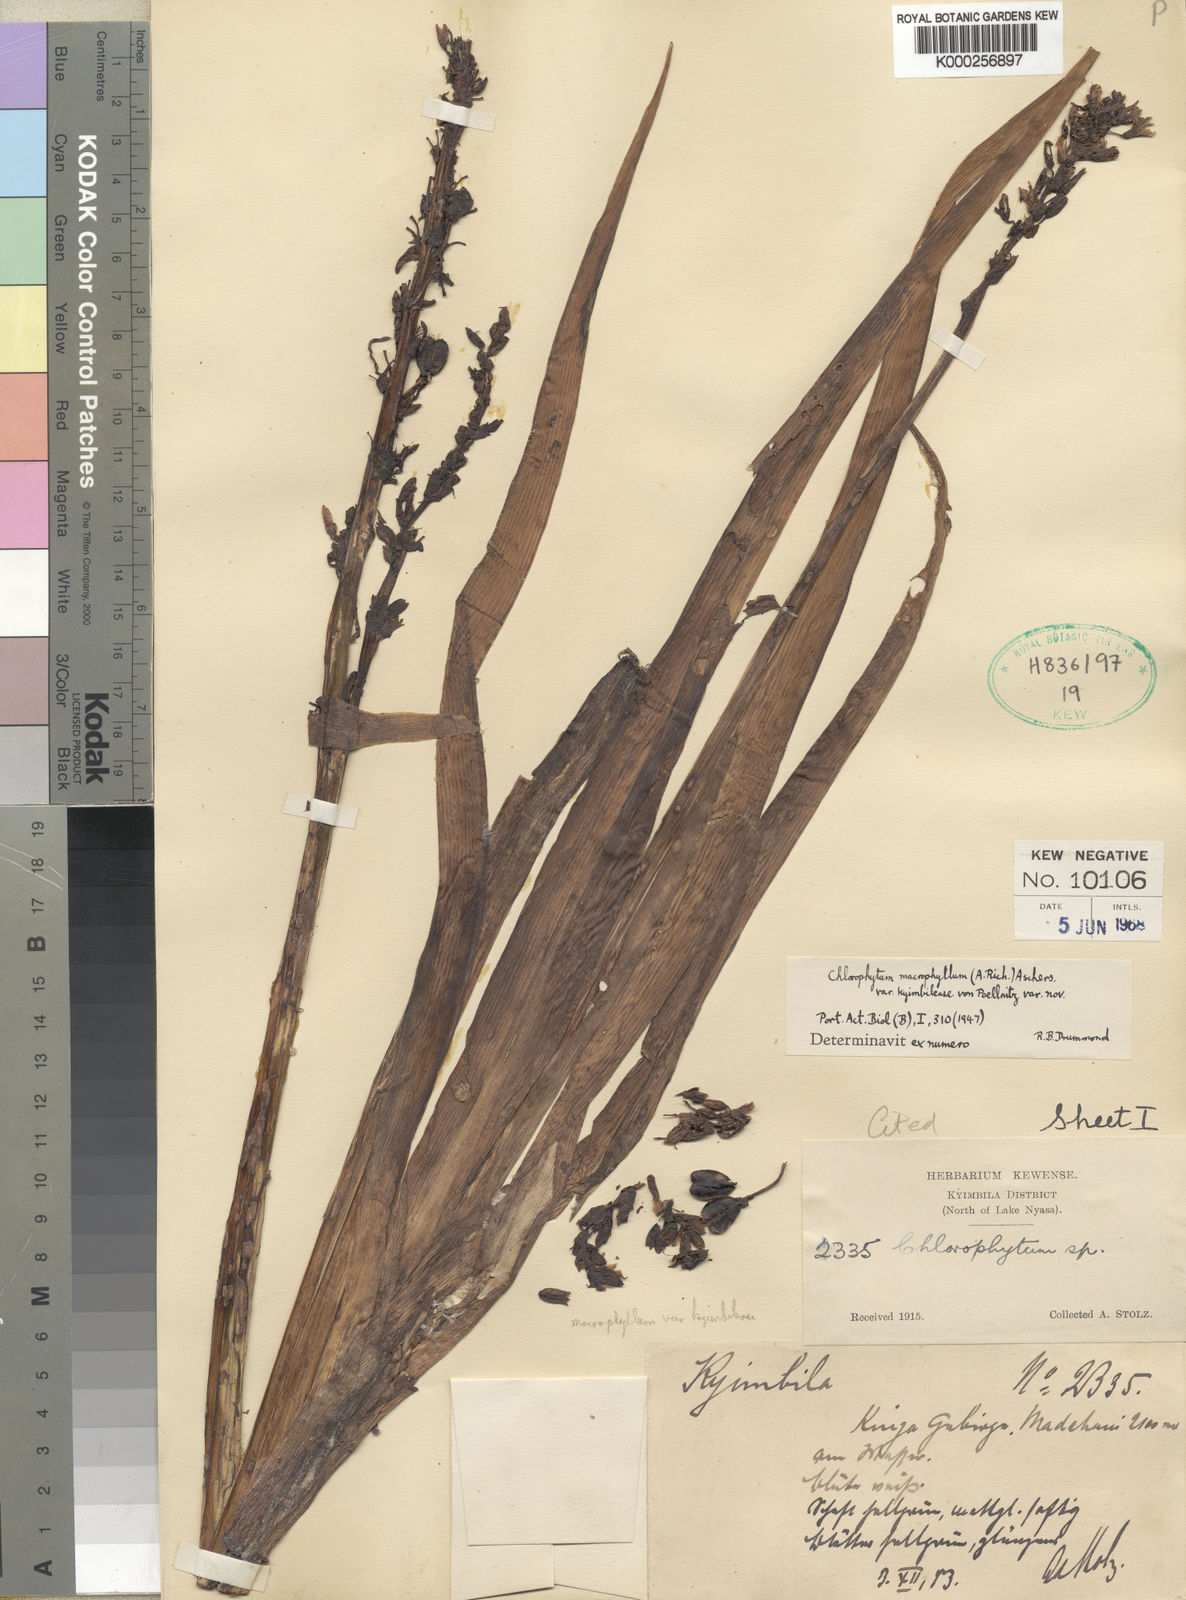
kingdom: Plantae
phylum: Tracheophyta
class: Liliopsida
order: Asparagales
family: Asparagaceae
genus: Chlorophytum
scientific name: Chlorophytum macrophyllum
